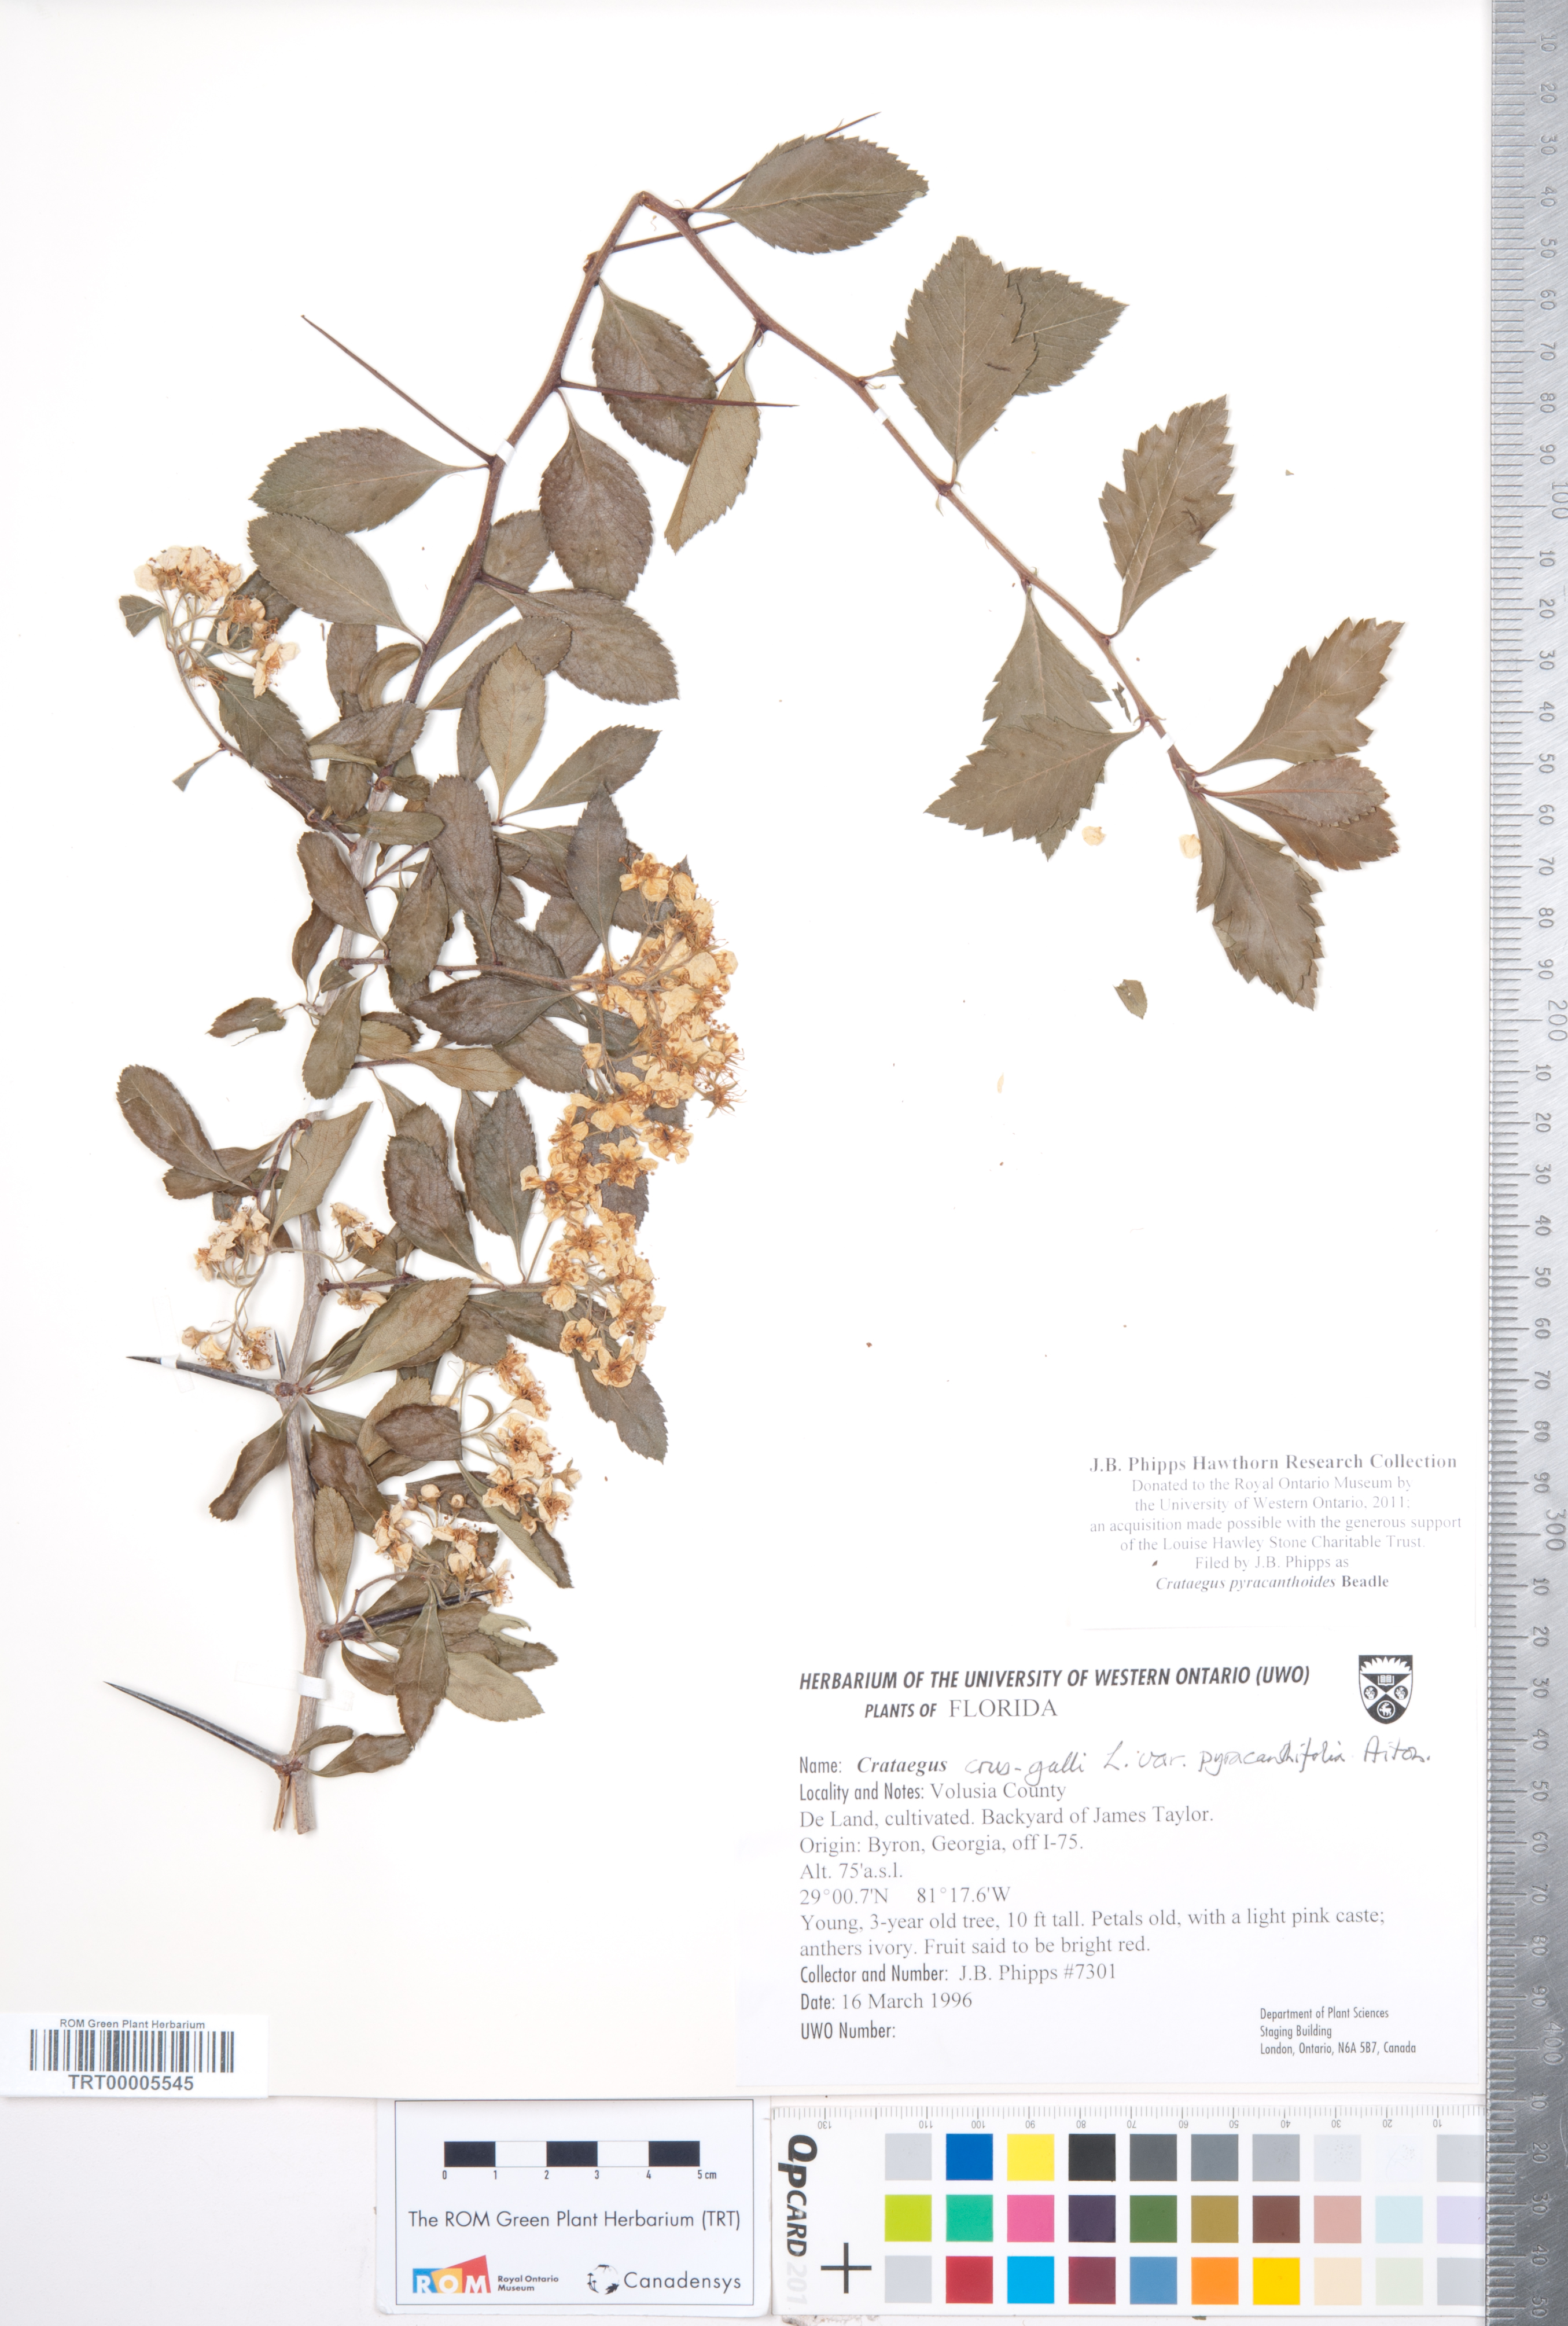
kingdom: Plantae
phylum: Tracheophyta
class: Magnoliopsida
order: Rosales
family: Rosaceae
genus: Crataegus
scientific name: Crataegus crus-galli
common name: Cockspurthorn
